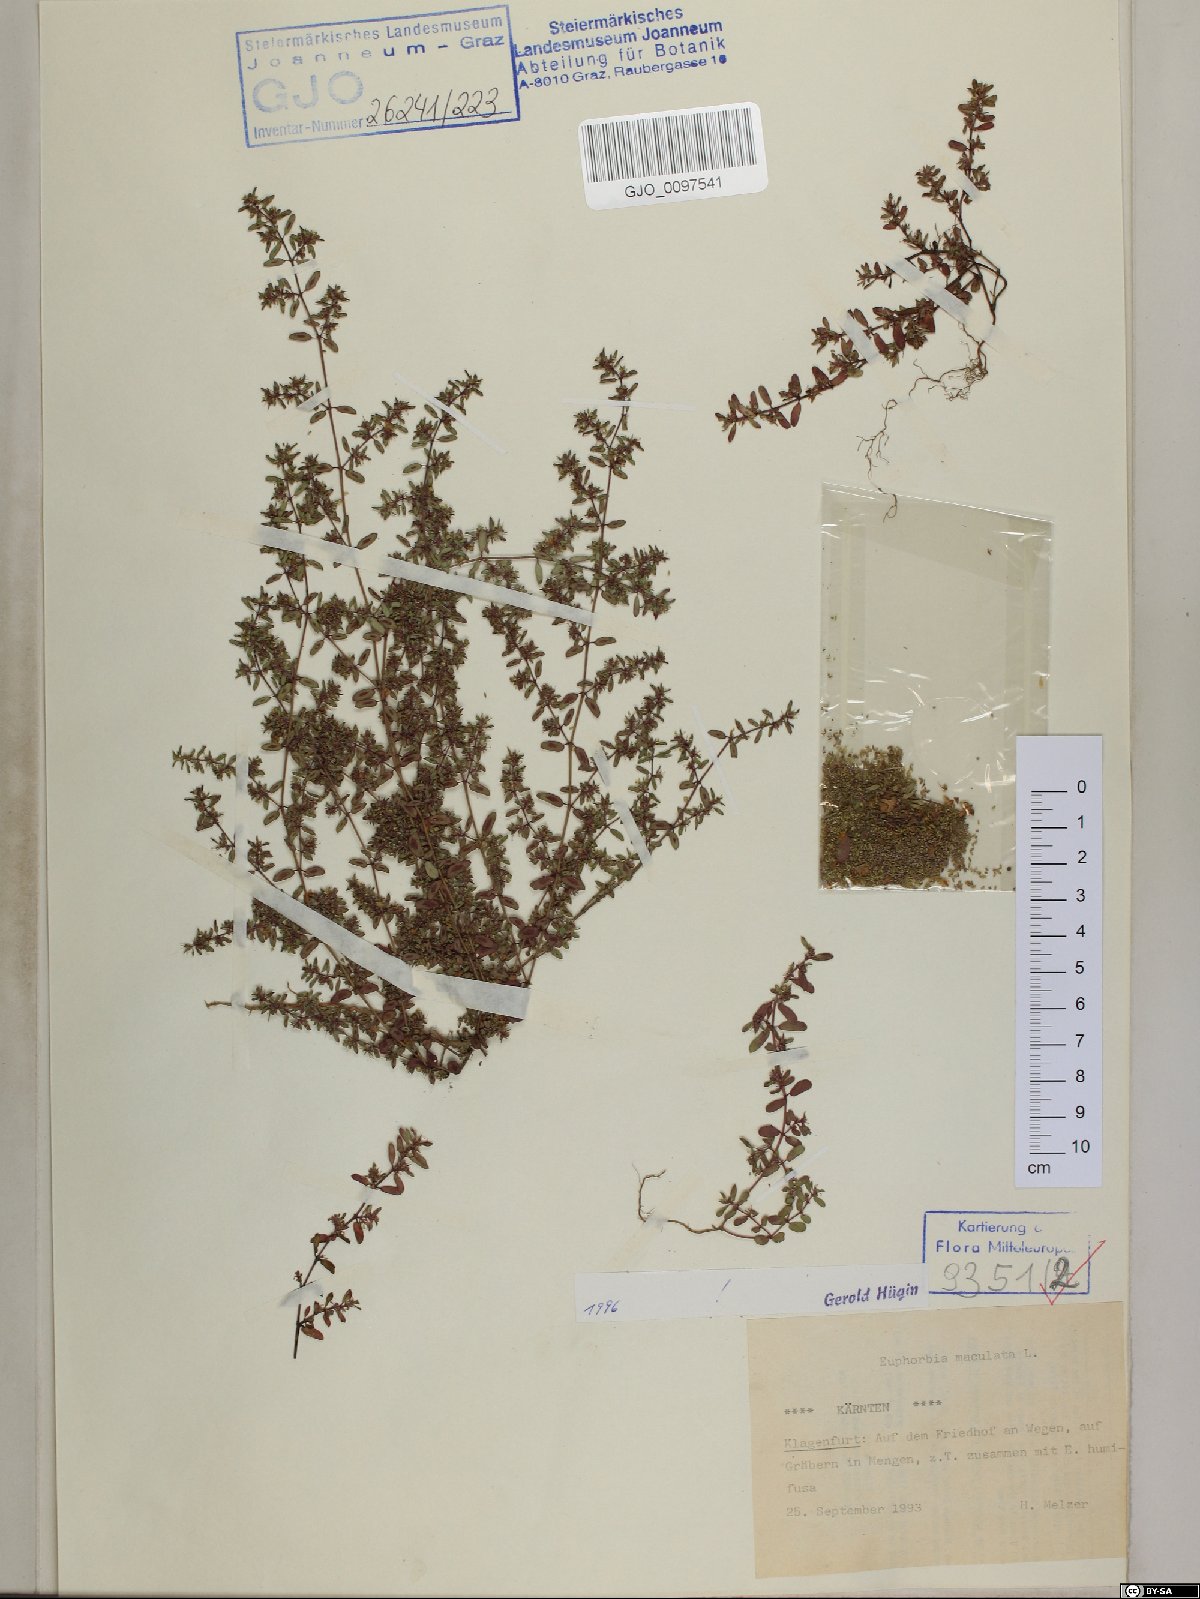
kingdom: Plantae
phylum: Tracheophyta
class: Magnoliopsida
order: Malpighiales
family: Euphorbiaceae
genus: Euphorbia
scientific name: Euphorbia maculata
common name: Spotted spurge
